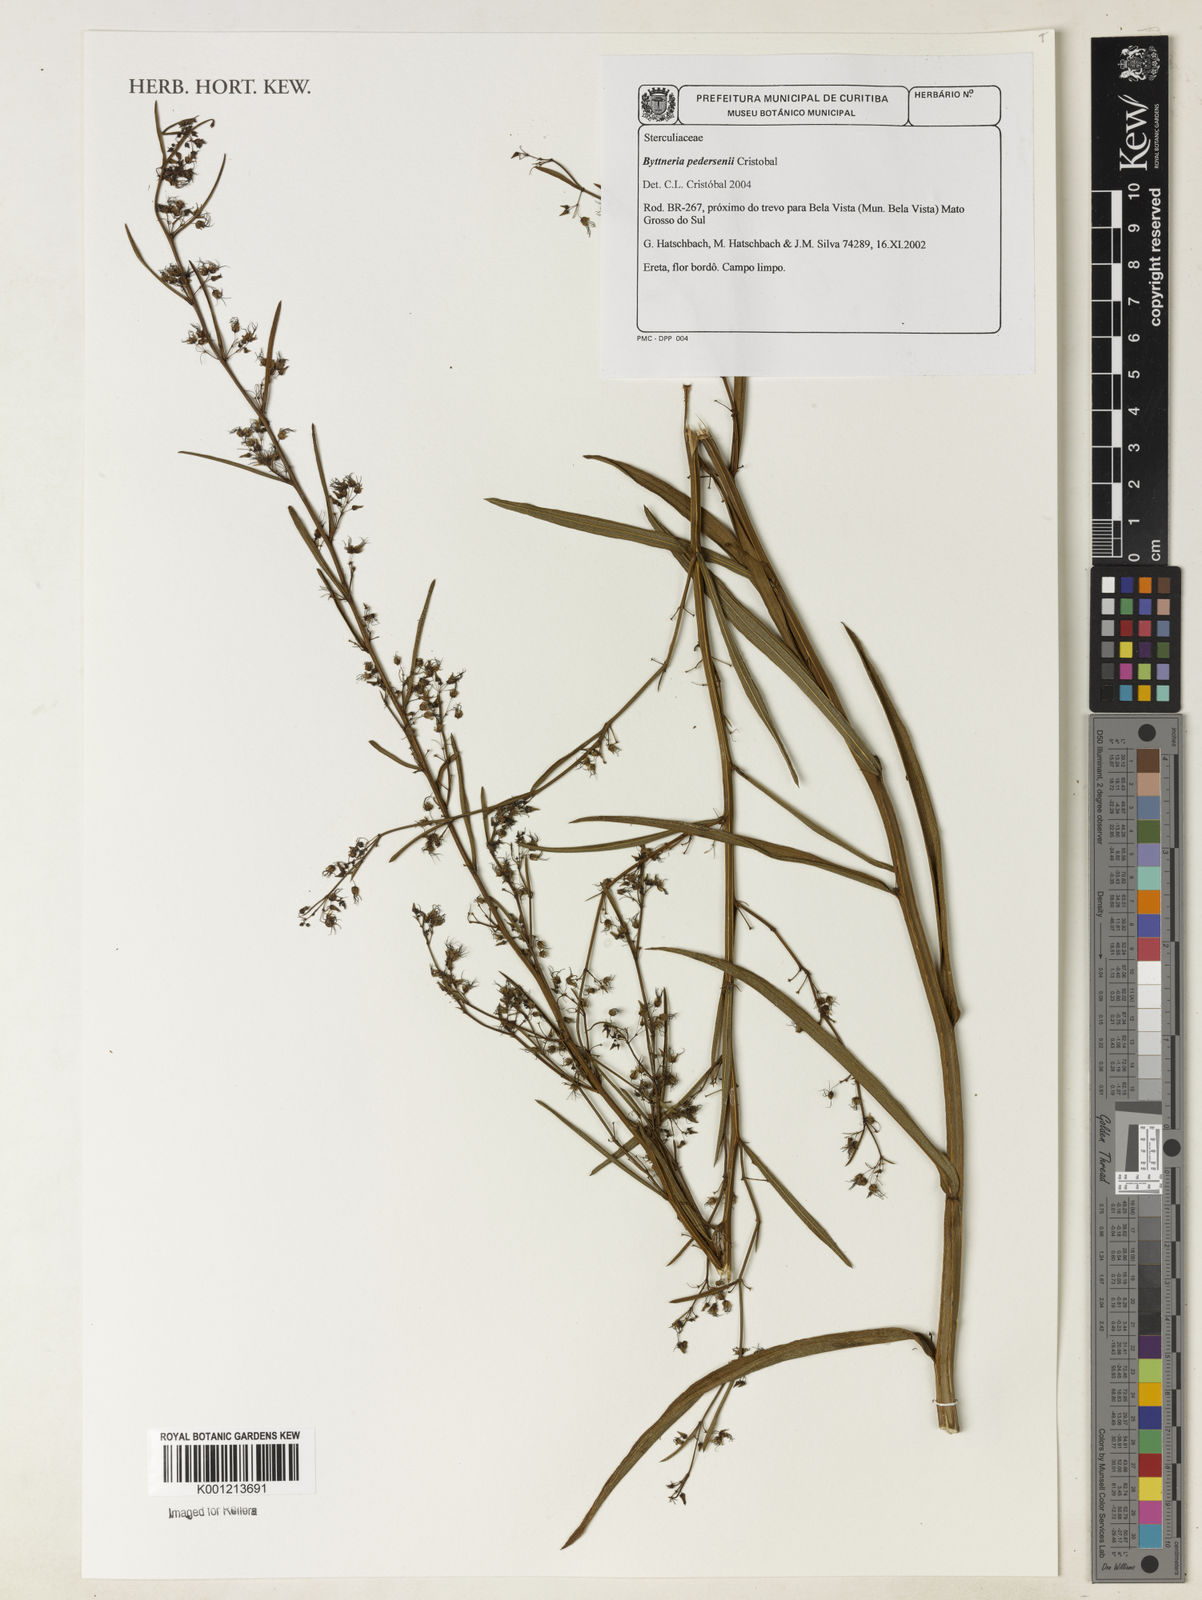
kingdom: Plantae
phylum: Tracheophyta
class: Magnoliopsida
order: Malvales
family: Malvaceae
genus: Byttneria
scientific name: Byttneria
